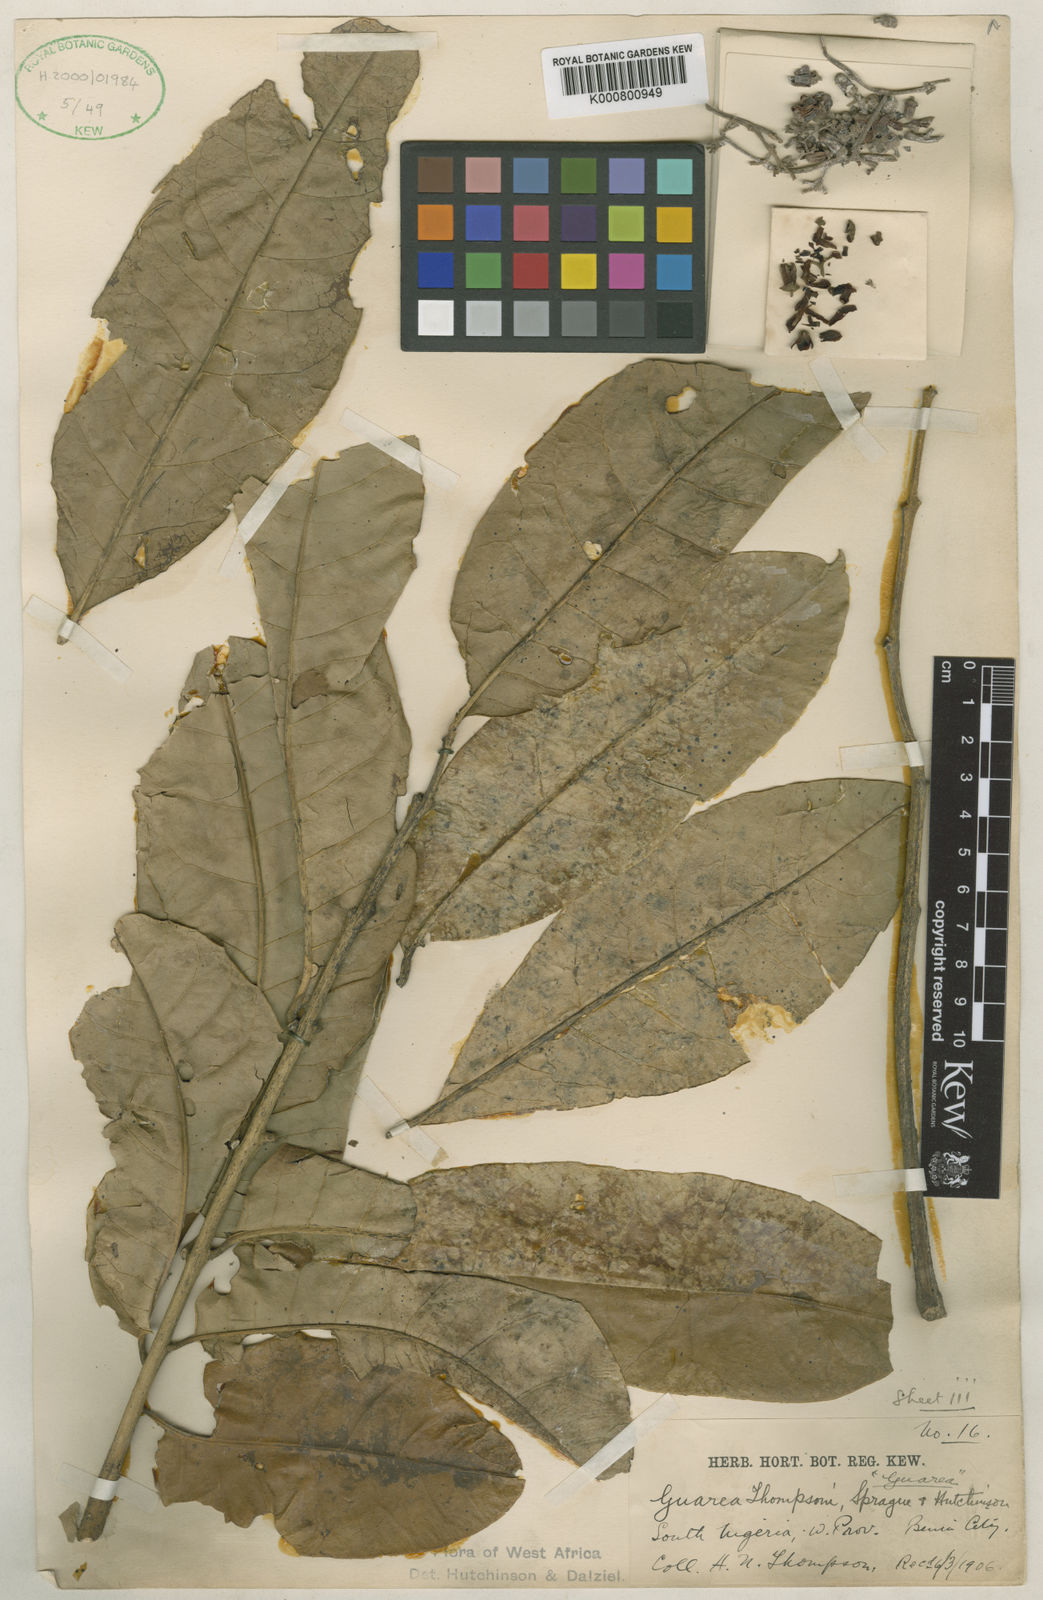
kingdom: Plantae
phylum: Tracheophyta
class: Magnoliopsida
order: Sapindales
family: Meliaceae
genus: Leplaea
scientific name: Leplaea thompsonii
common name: Black guarea
